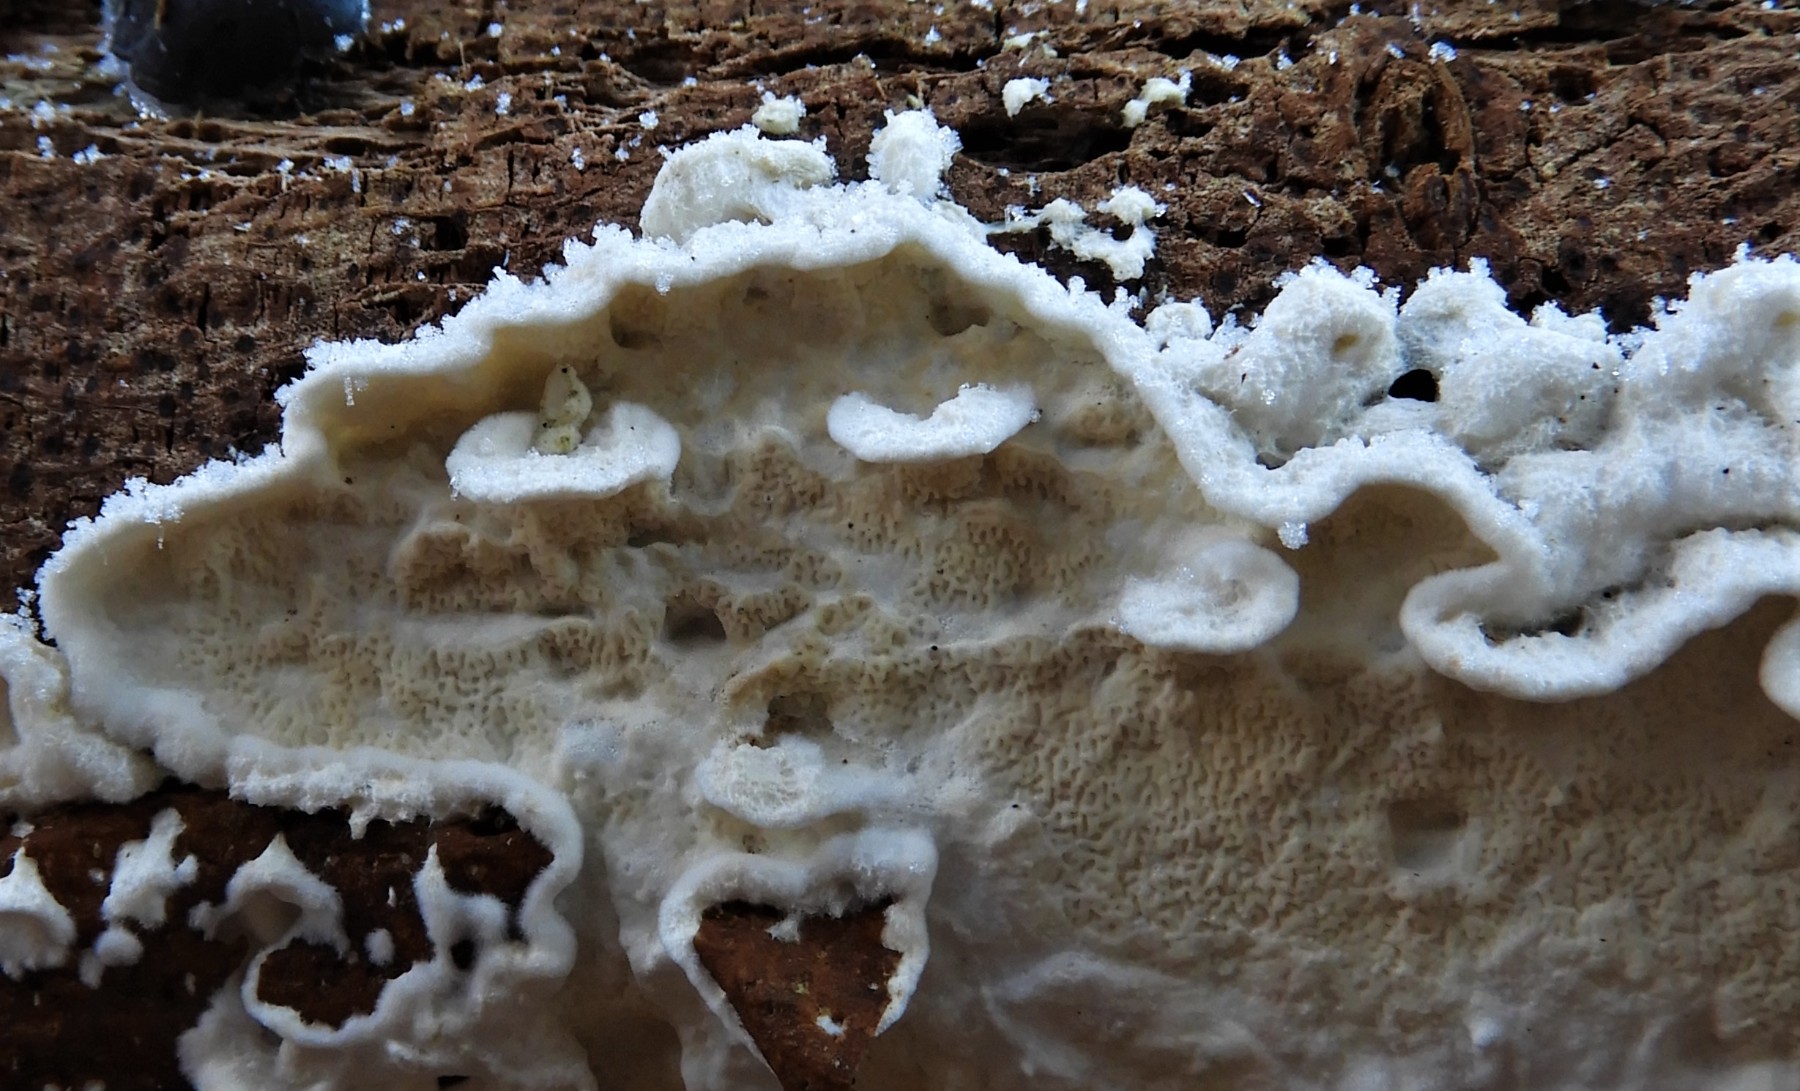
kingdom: Fungi
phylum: Basidiomycota
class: Agaricomycetes
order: Polyporales
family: Irpicaceae
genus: Byssomerulius
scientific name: Byssomerulius corium
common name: læder-åresvamp
